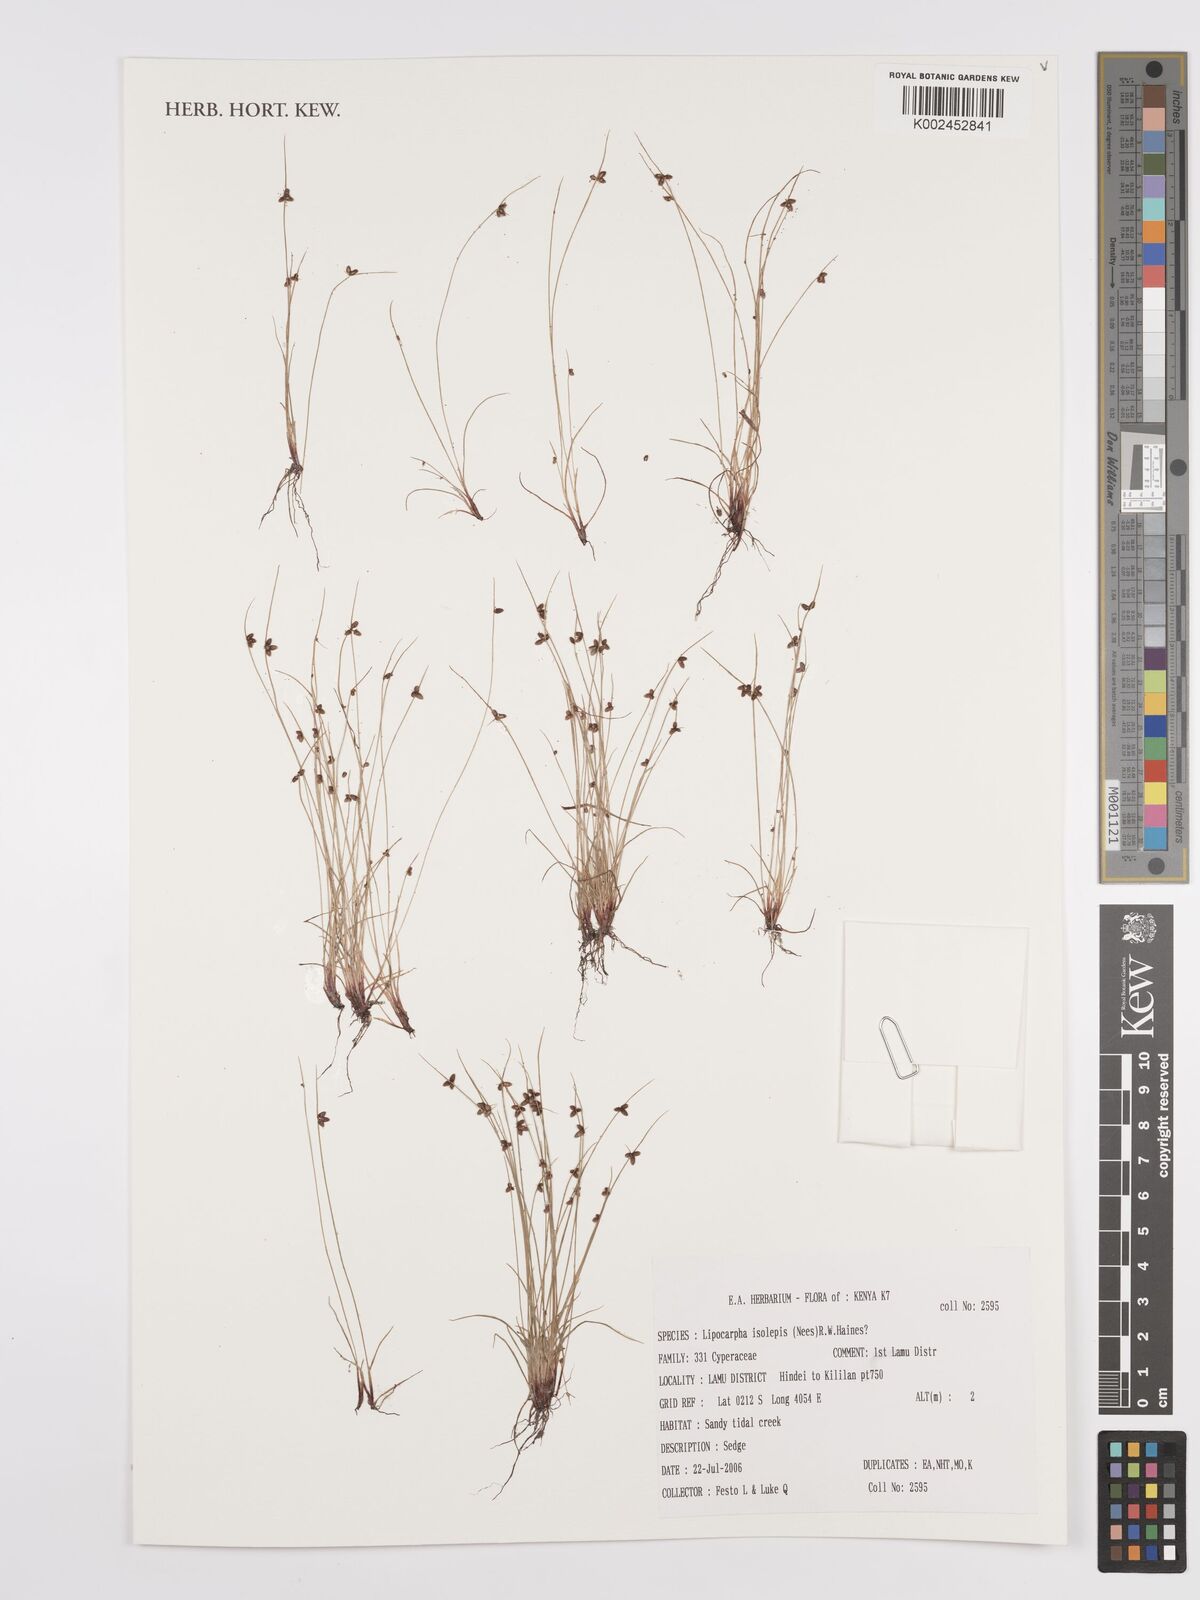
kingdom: Plantae
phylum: Tracheophyta
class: Liliopsida
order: Poales
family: Cyperaceae
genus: Cyperus
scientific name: Cyperus
